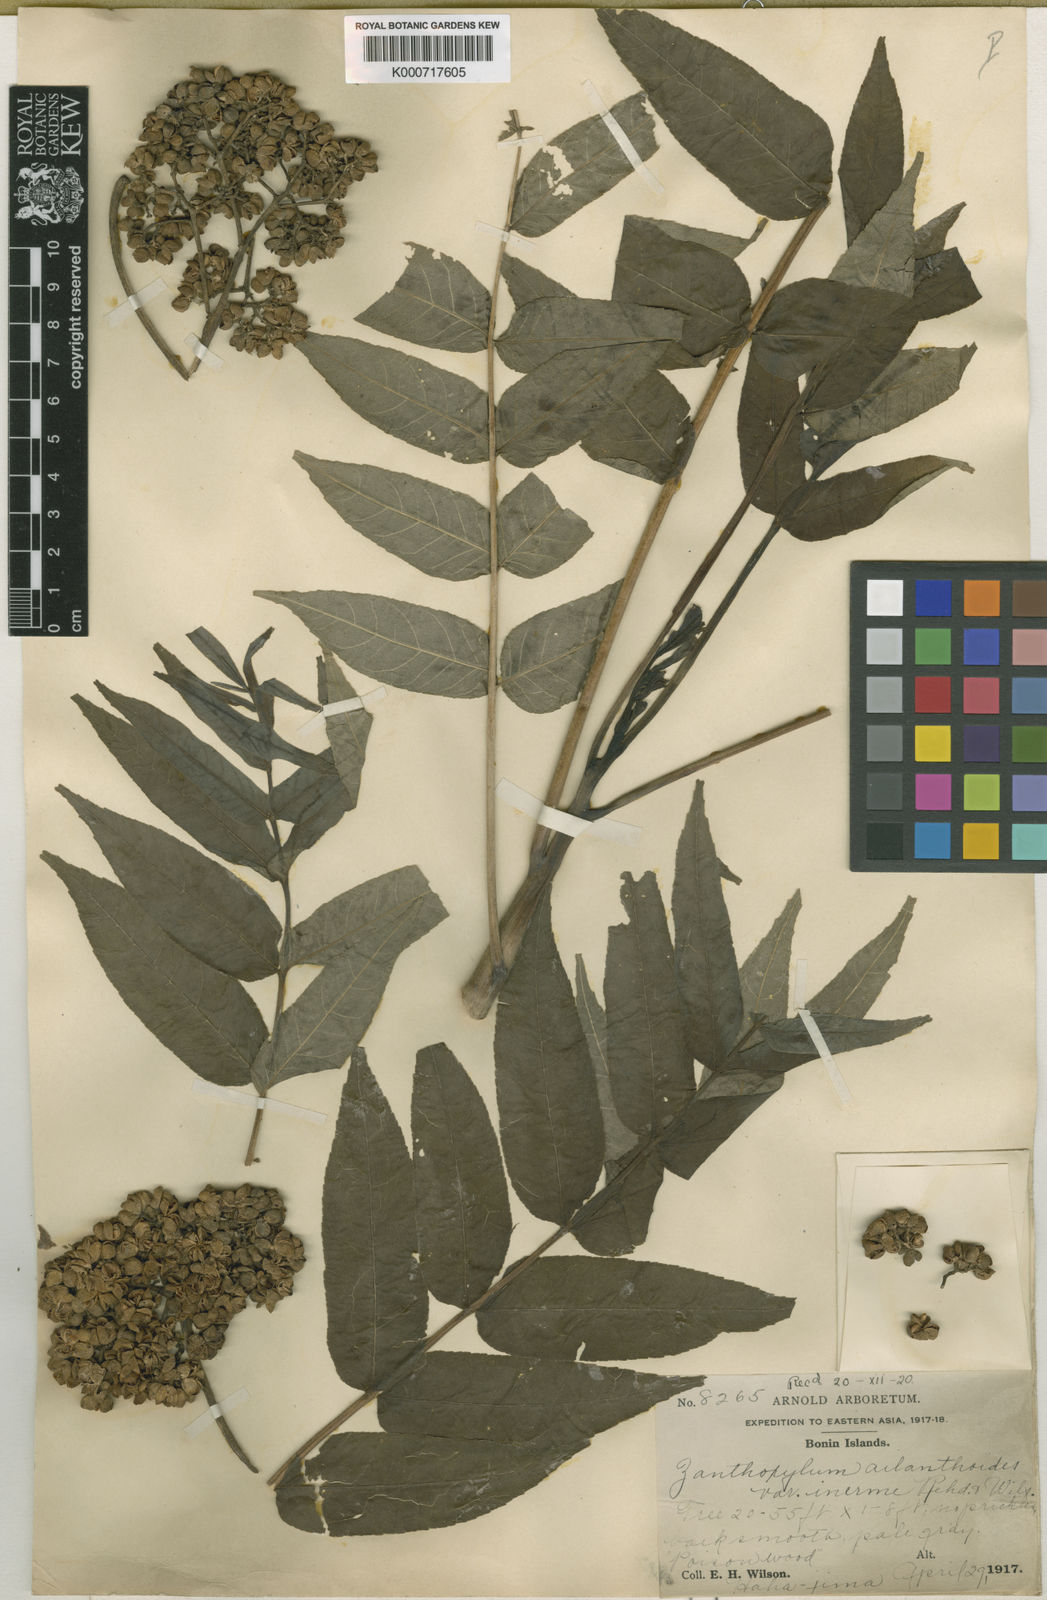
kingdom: Plantae
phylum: Tracheophyta
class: Magnoliopsida
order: Sapindales
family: Rutaceae
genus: Zanthoxylum
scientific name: Zanthoxylum ailanthoides
